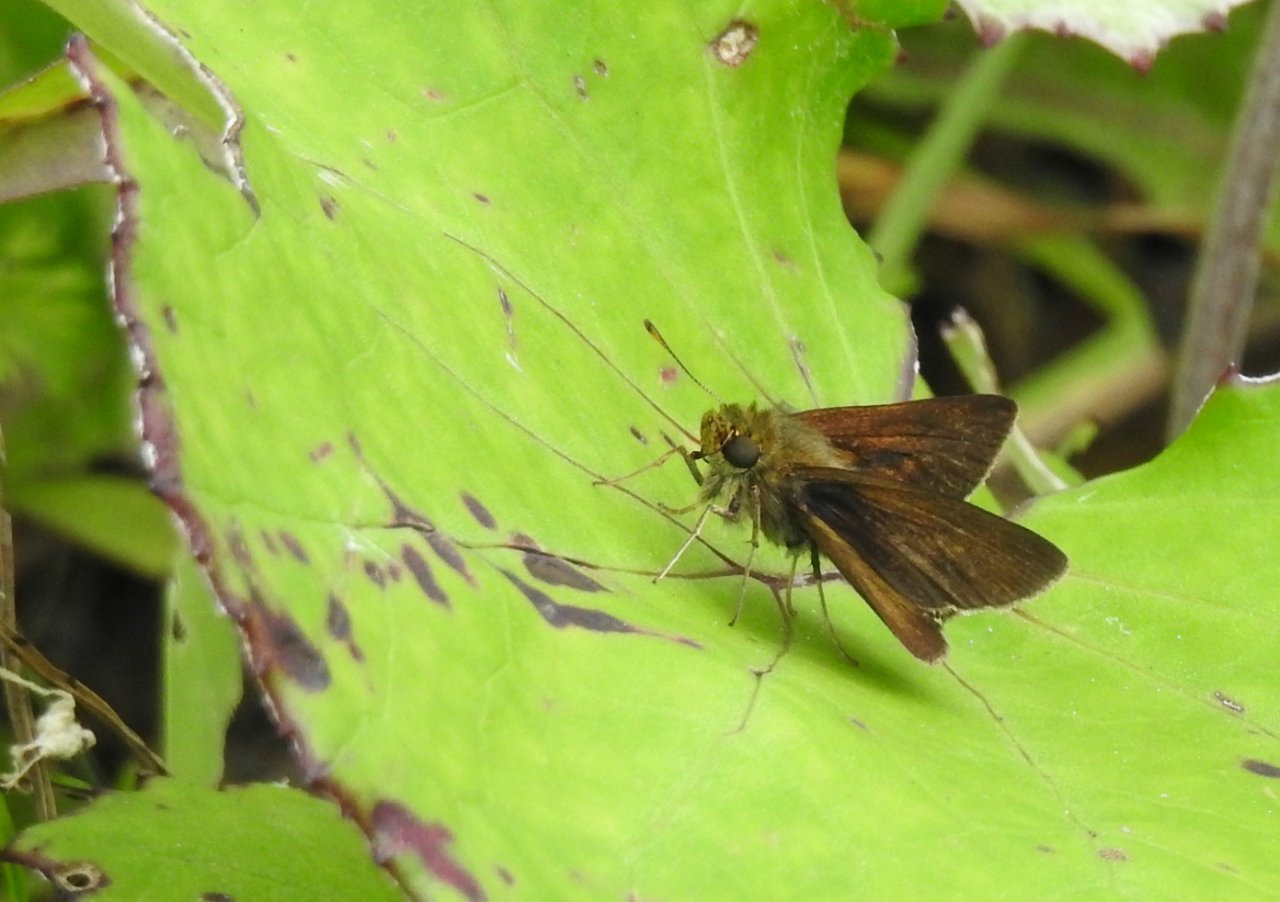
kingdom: Animalia
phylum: Arthropoda
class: Insecta
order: Lepidoptera
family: Hesperiidae
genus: Euphyes
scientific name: Euphyes vestris
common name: Dun Skipper
